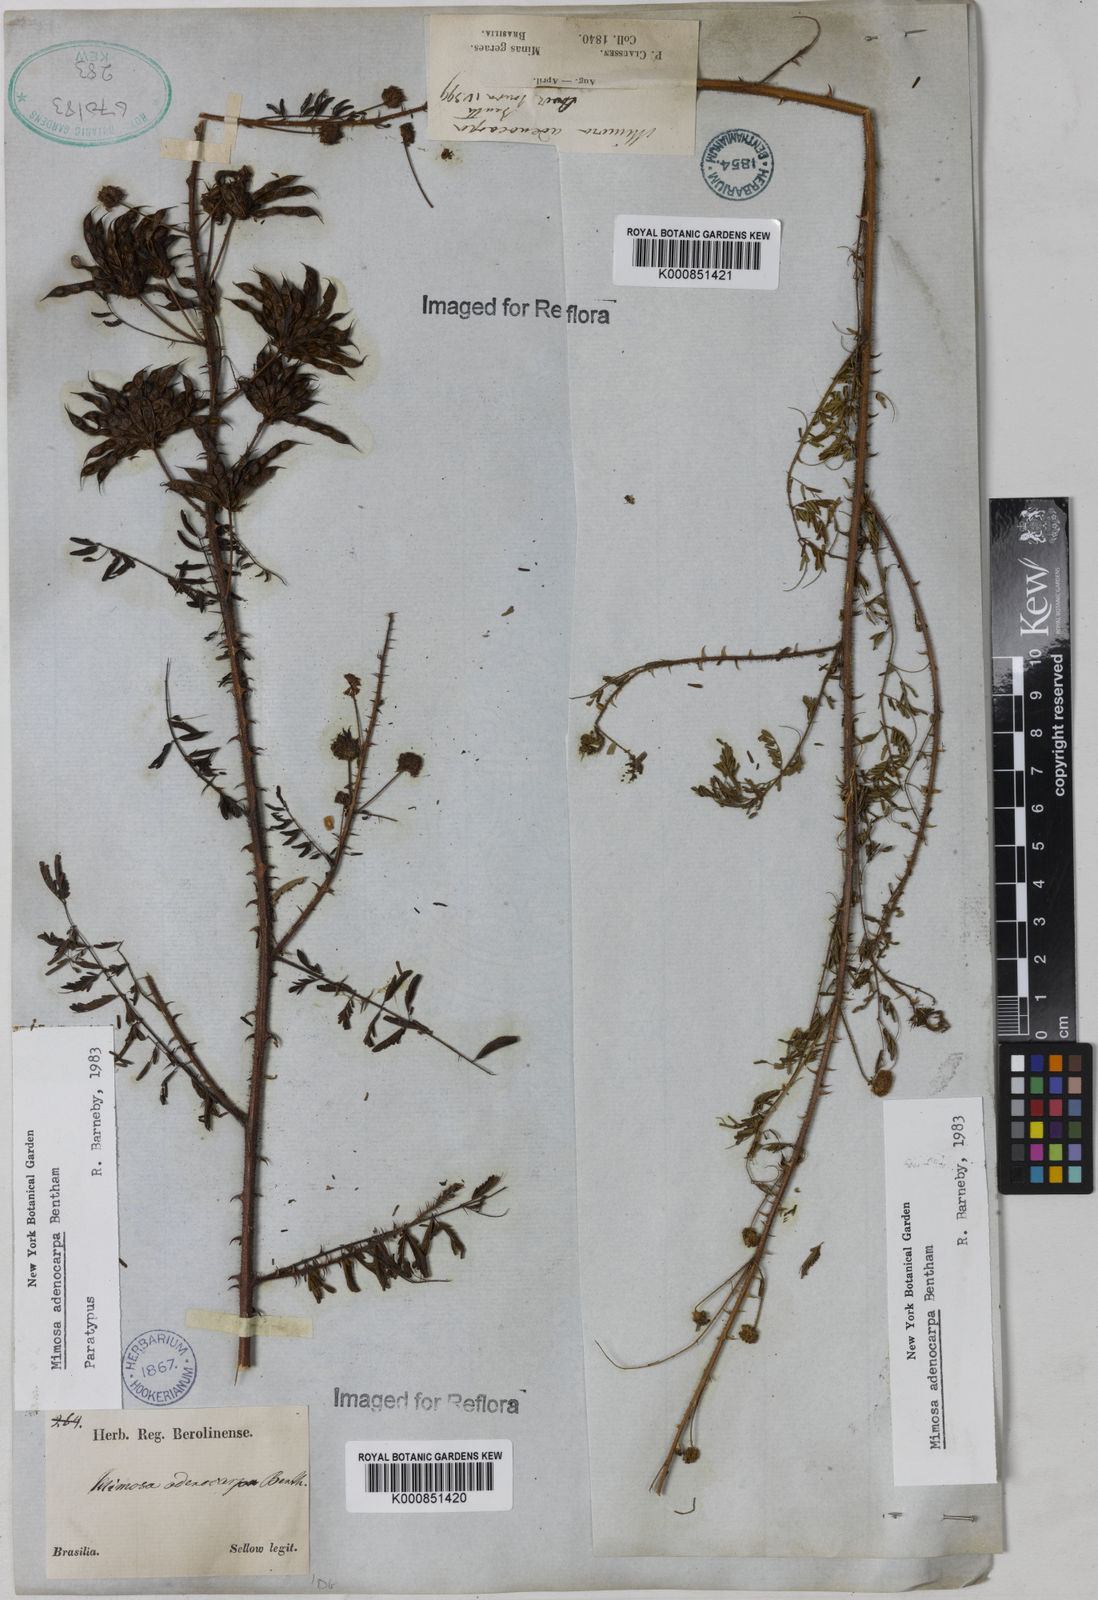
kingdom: Plantae
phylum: Tracheophyta
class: Magnoliopsida
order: Fabales
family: Fabaceae
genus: Mimosa
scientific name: Mimosa adenocarpa
